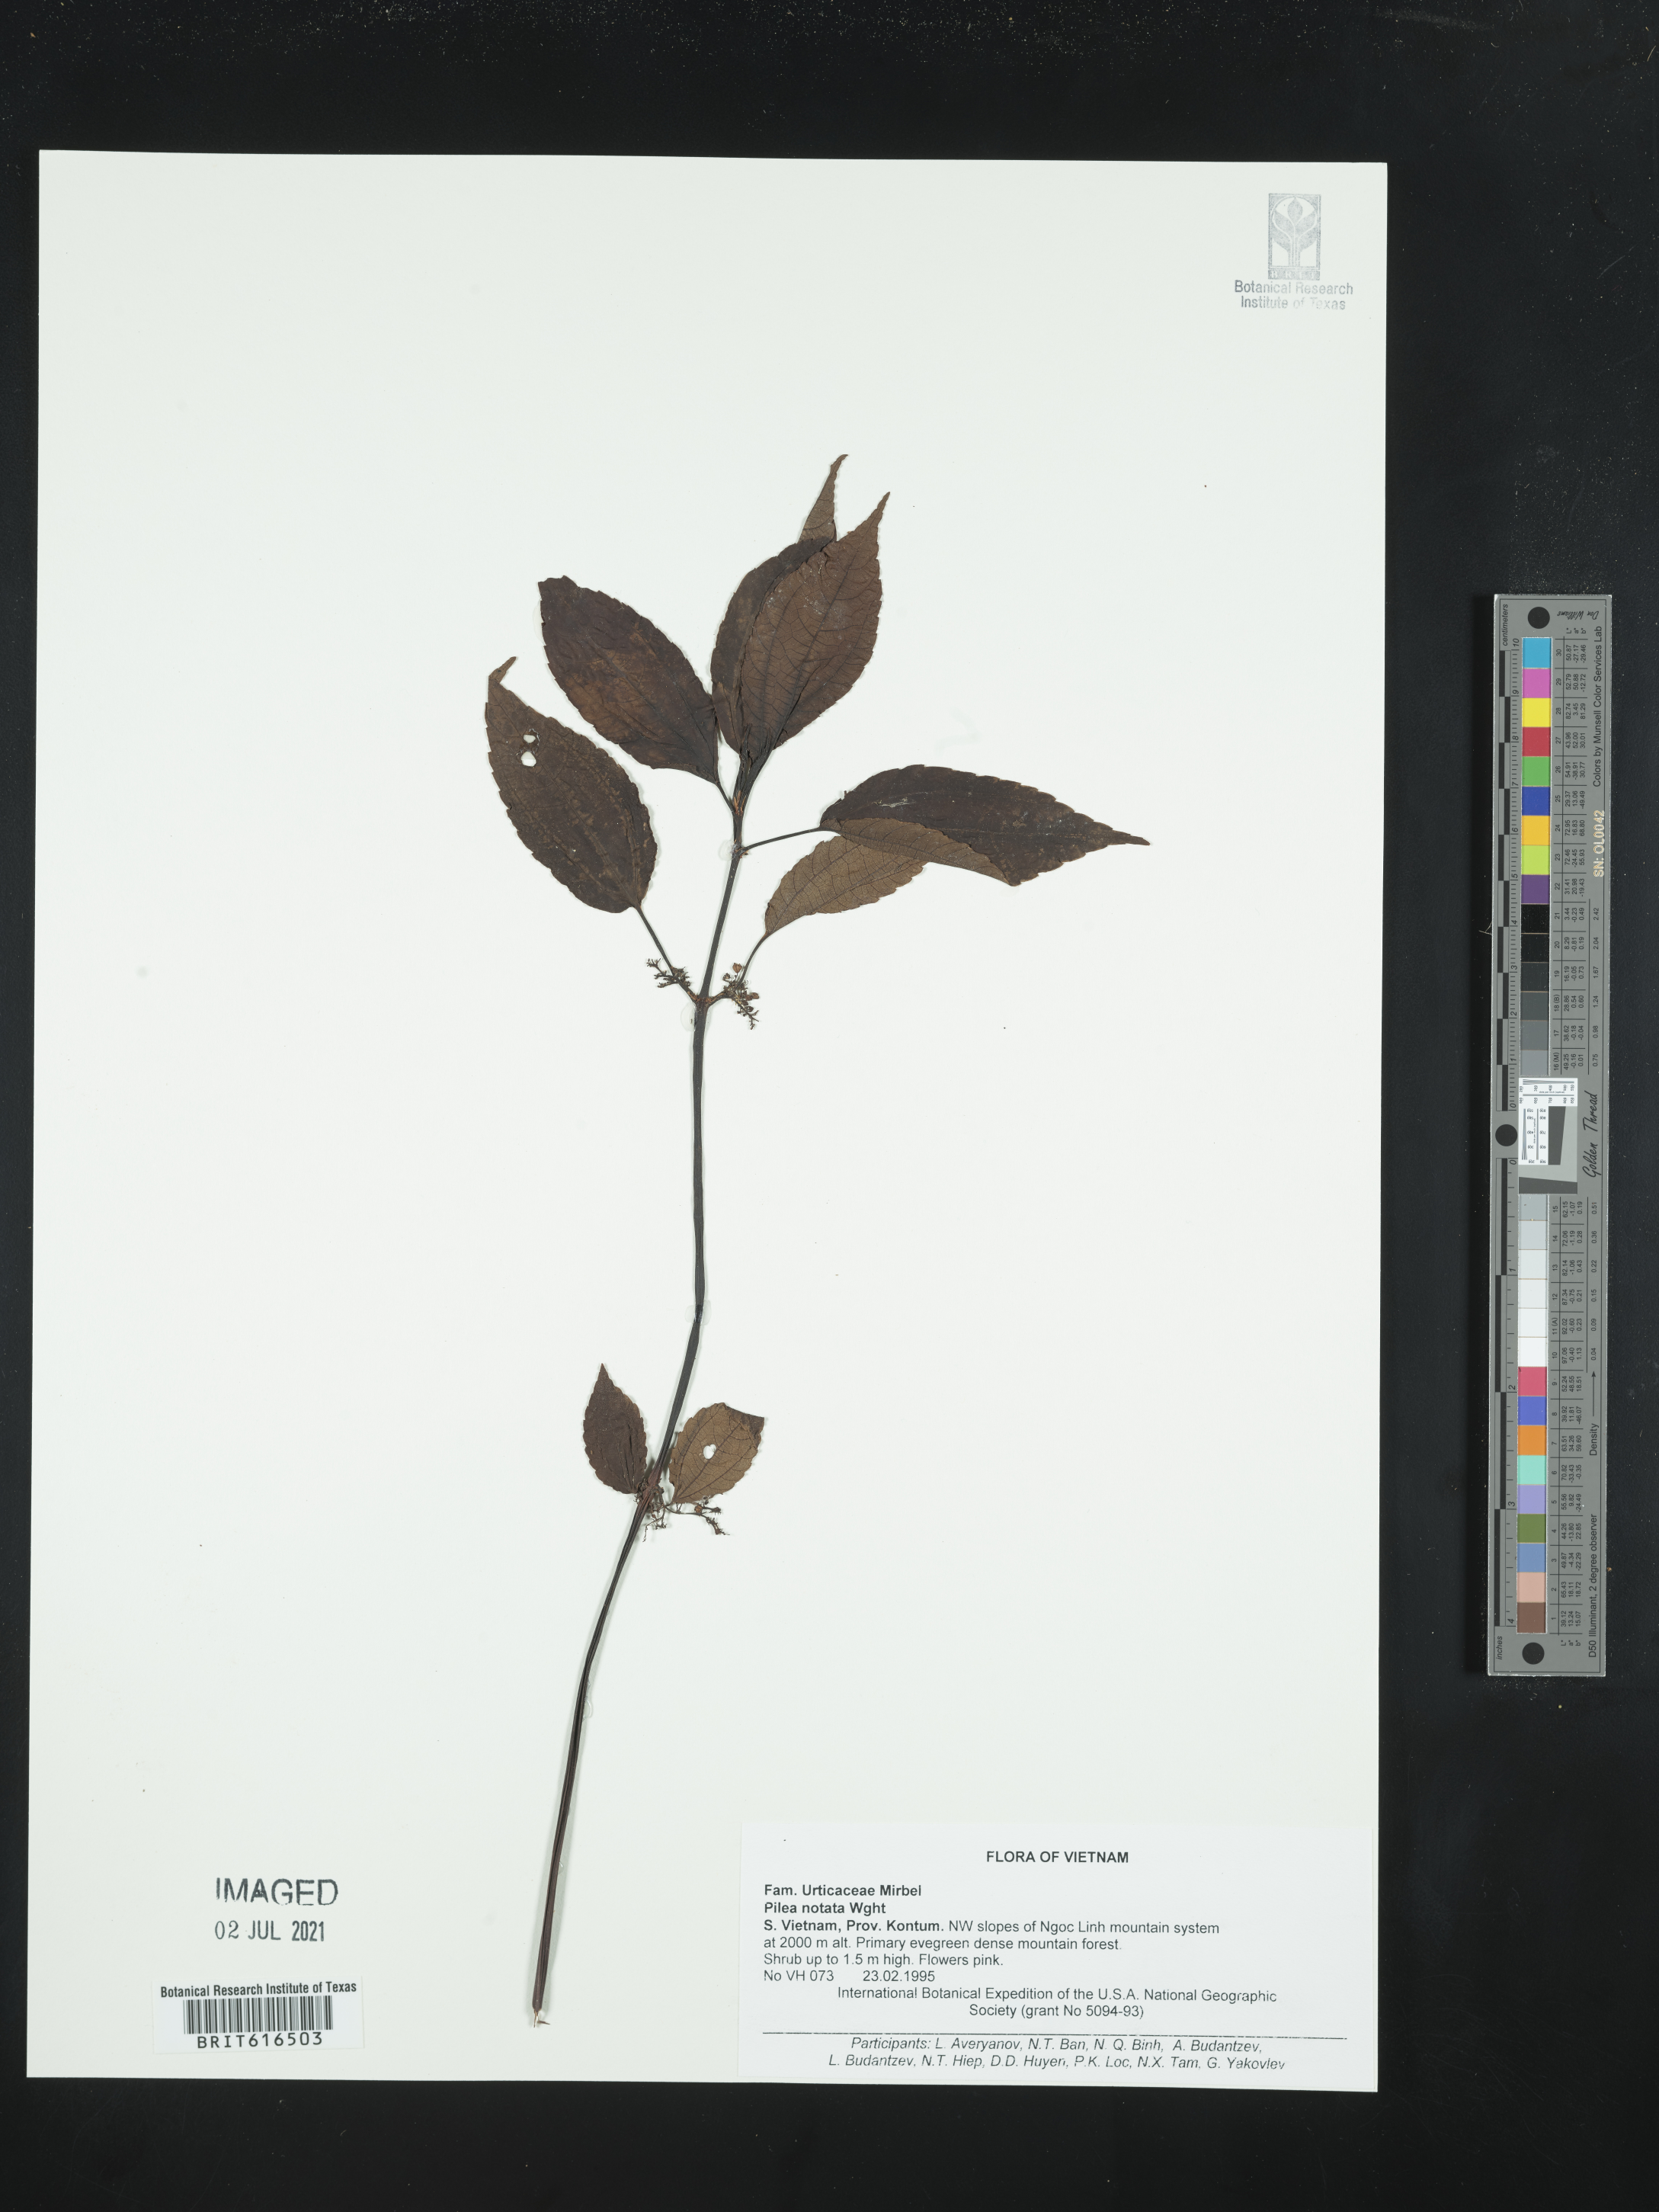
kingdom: Plantae
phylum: Tracheophyta
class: Magnoliopsida
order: Rosales
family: Urticaceae
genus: Pilea
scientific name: Pilea notata
